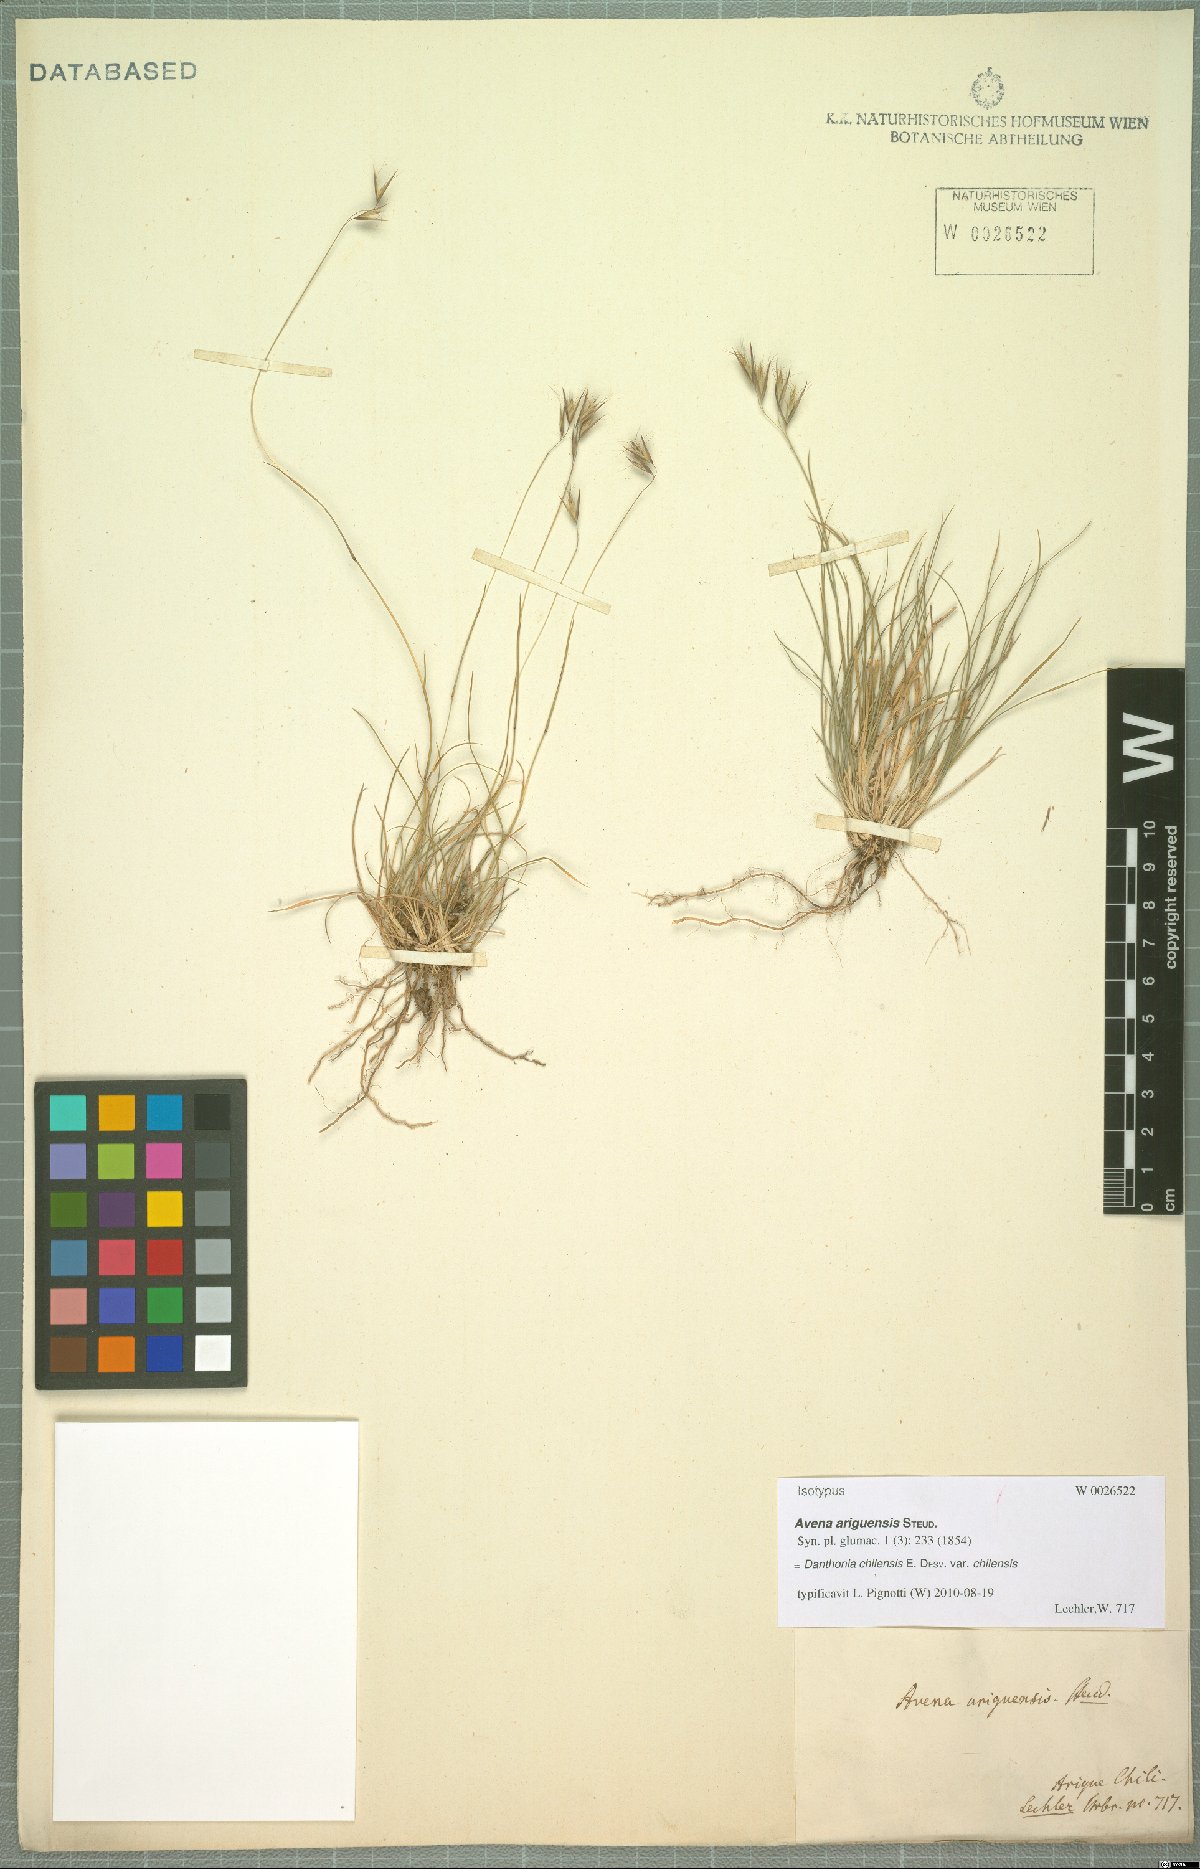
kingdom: Plantae
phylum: Tracheophyta
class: Liliopsida
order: Poales
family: Poaceae
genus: Danthonia
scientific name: Danthonia chilensis
